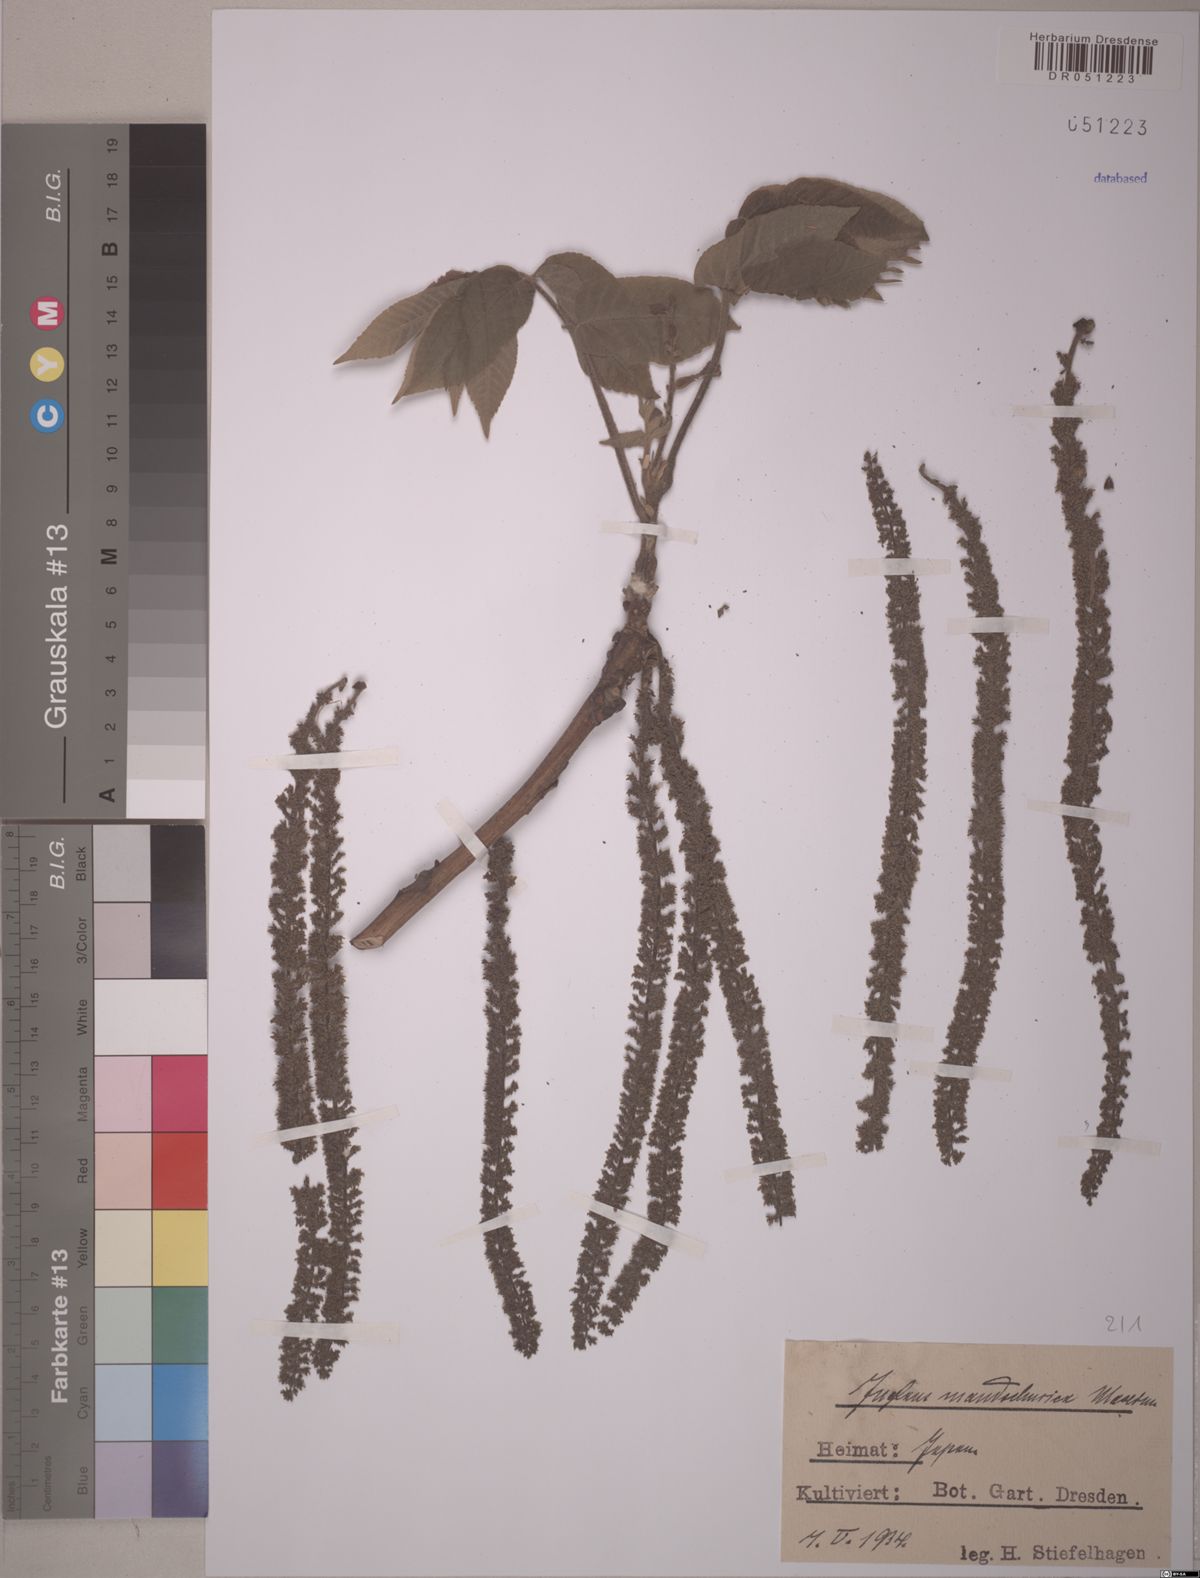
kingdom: Plantae
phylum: Tracheophyta
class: Magnoliopsida
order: Fagales
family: Juglandaceae
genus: Juglans
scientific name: Juglans mandshurica
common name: Manchurian walnut
